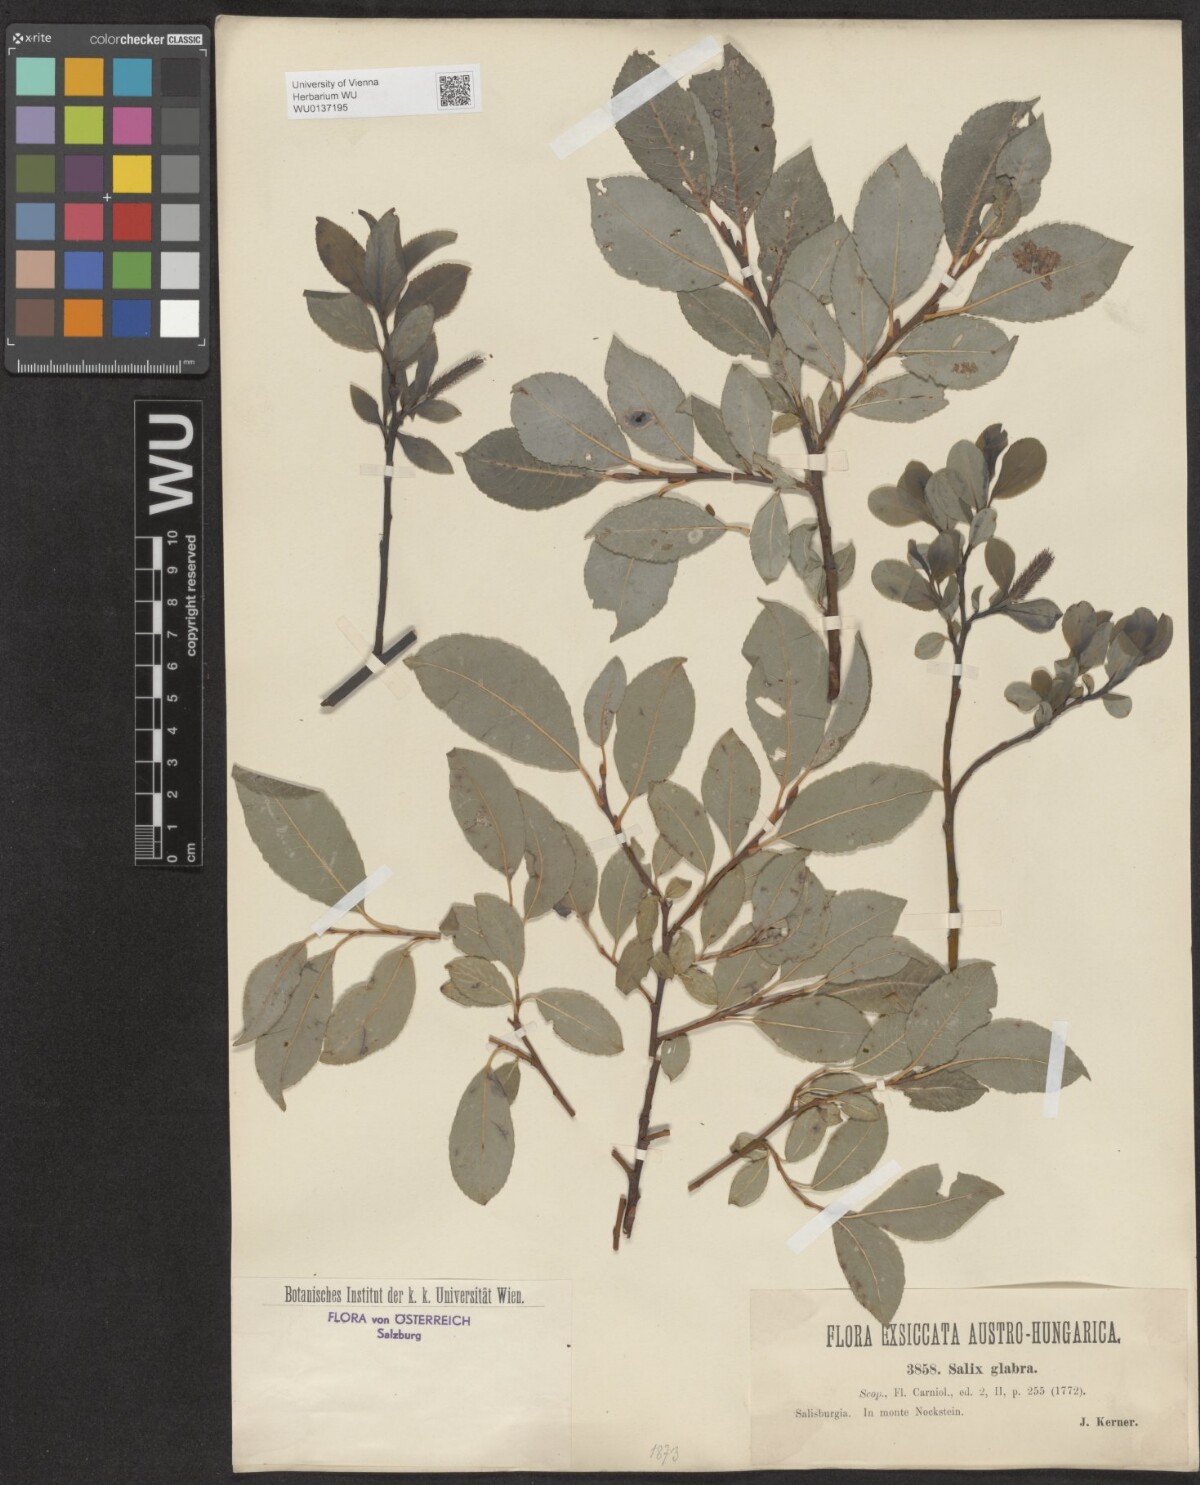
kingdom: Plantae
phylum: Tracheophyta
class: Magnoliopsida
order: Malpighiales
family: Salicaceae
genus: Salix
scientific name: Salix glabra
